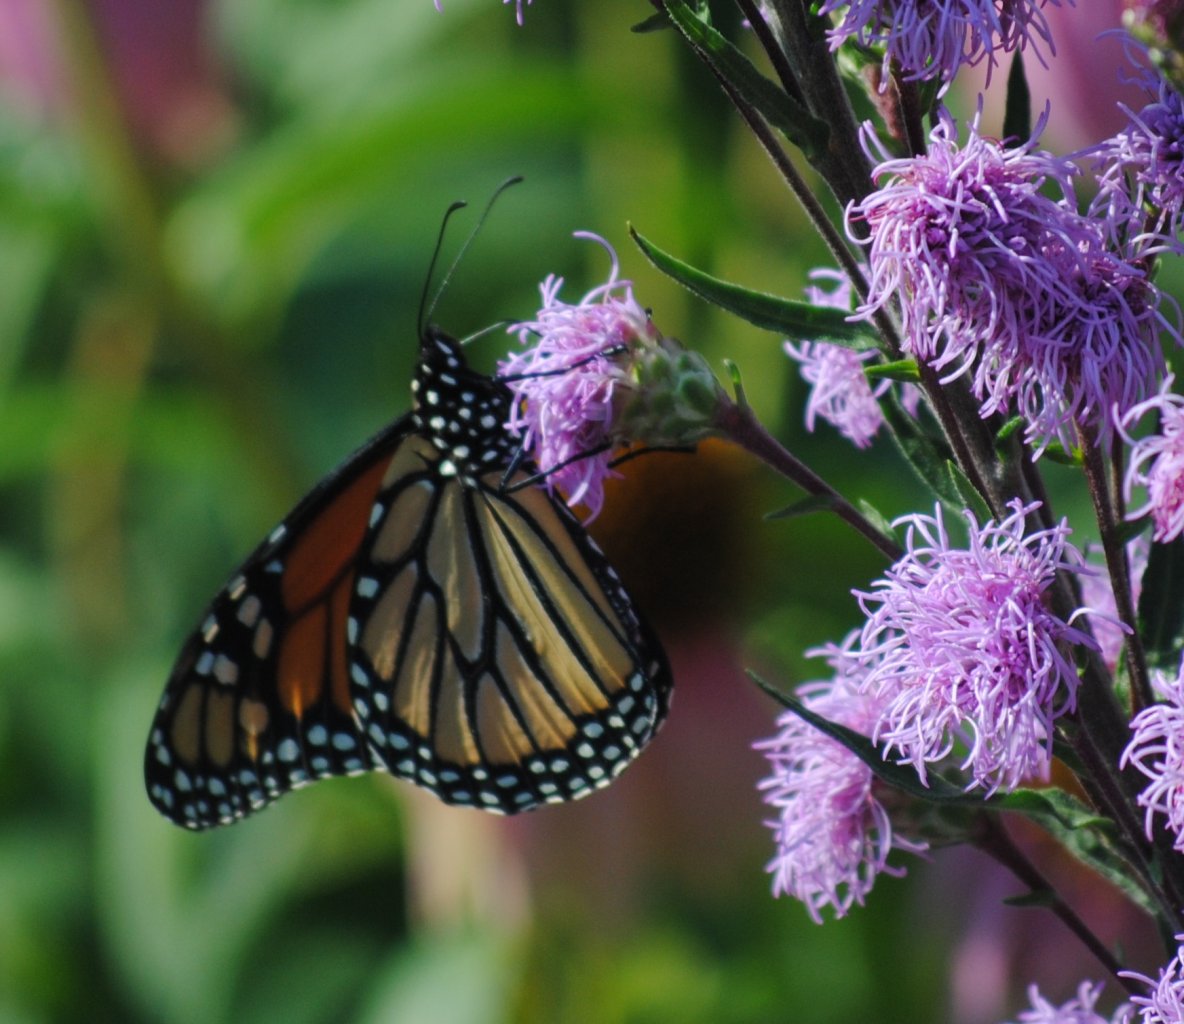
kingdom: Animalia
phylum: Arthropoda
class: Insecta
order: Lepidoptera
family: Nymphalidae
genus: Danaus
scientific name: Danaus plexippus
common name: Monarch
